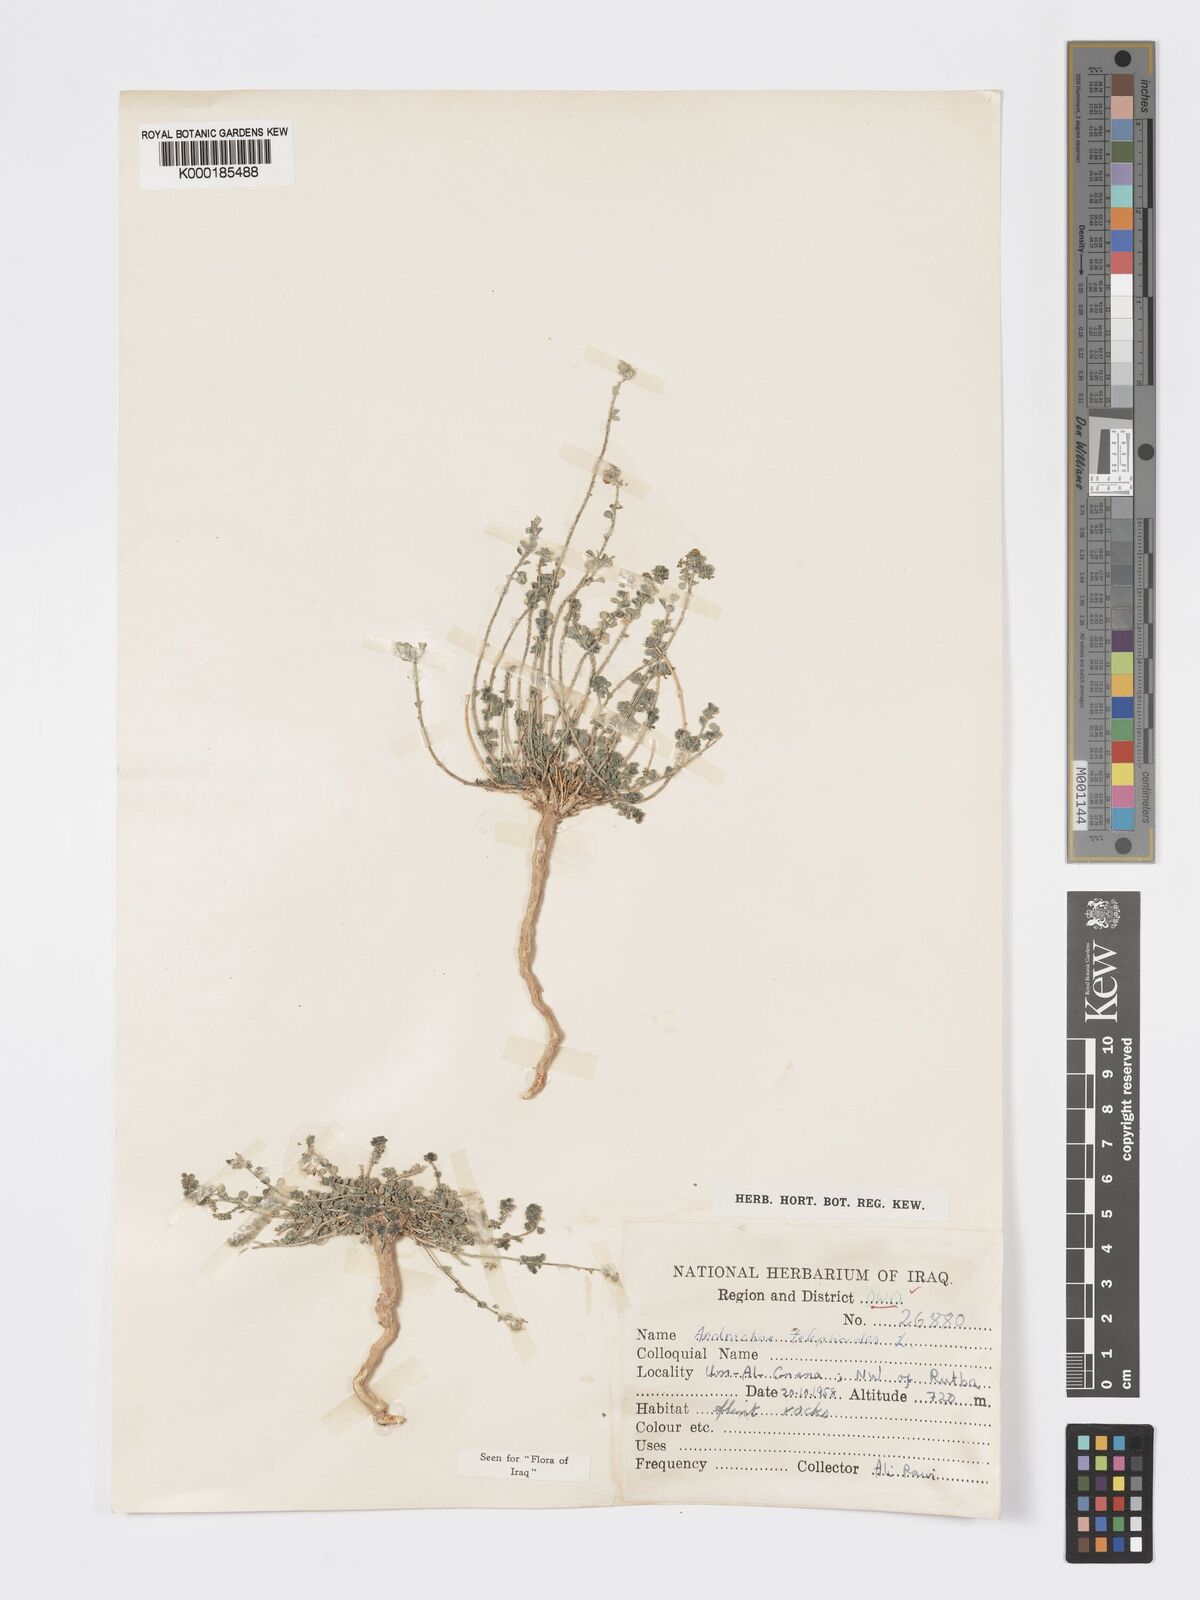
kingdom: Plantae
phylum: Tracheophyta
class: Magnoliopsida
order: Malpighiales
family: Phyllanthaceae
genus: Andrachne
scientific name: Andrachne telephioides
